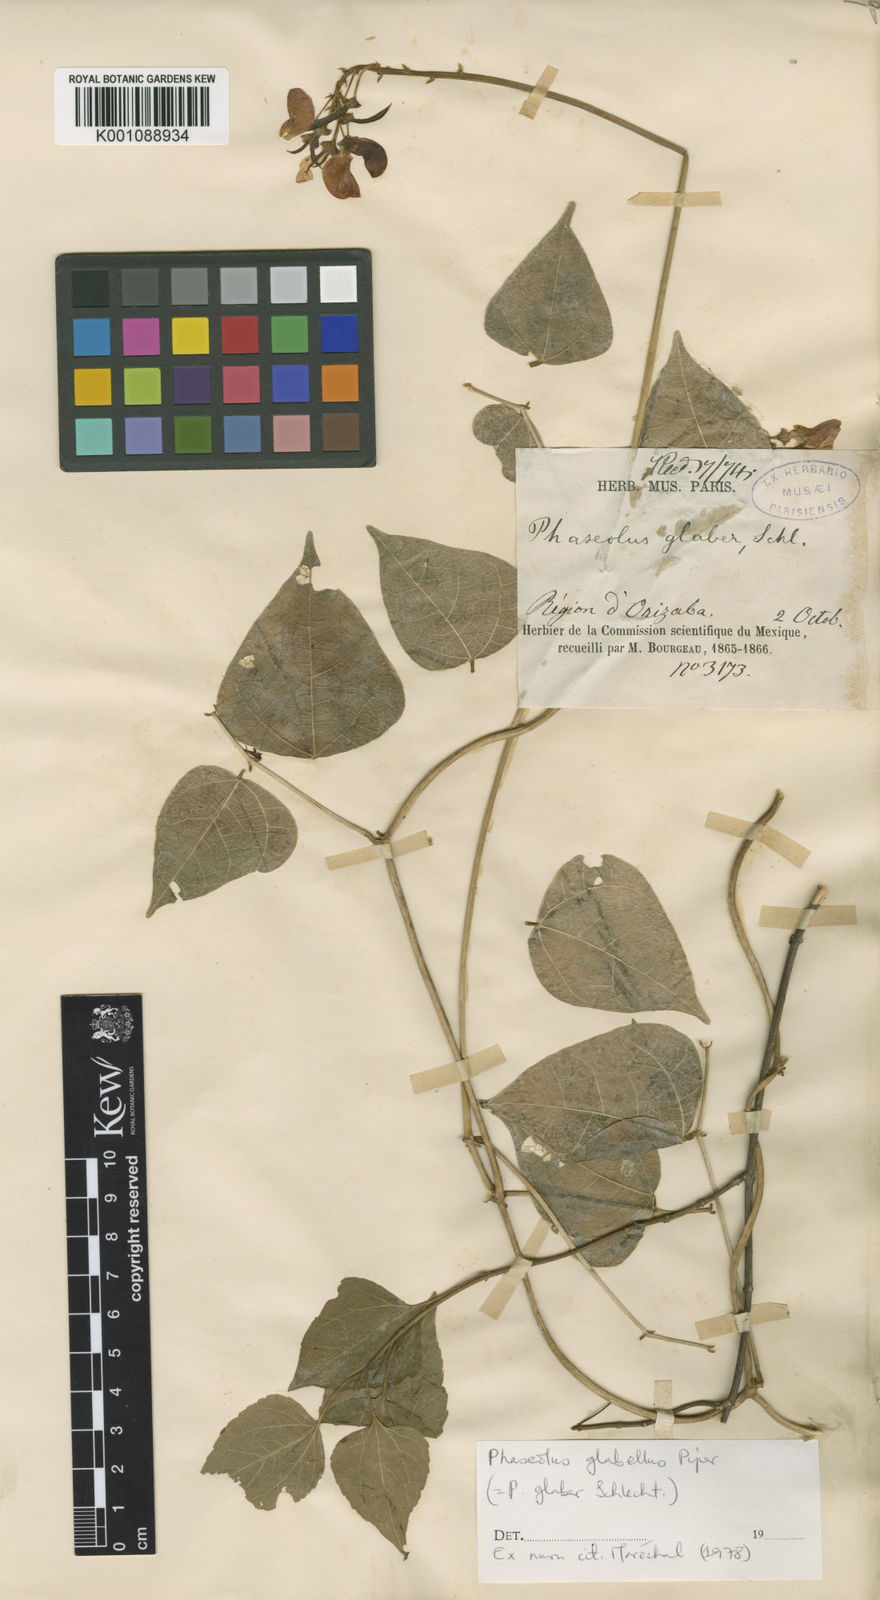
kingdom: Plantae
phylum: Tracheophyta
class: Magnoliopsida
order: Fabales
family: Fabaceae
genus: Phaseolus
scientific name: Phaseolus glabellus
